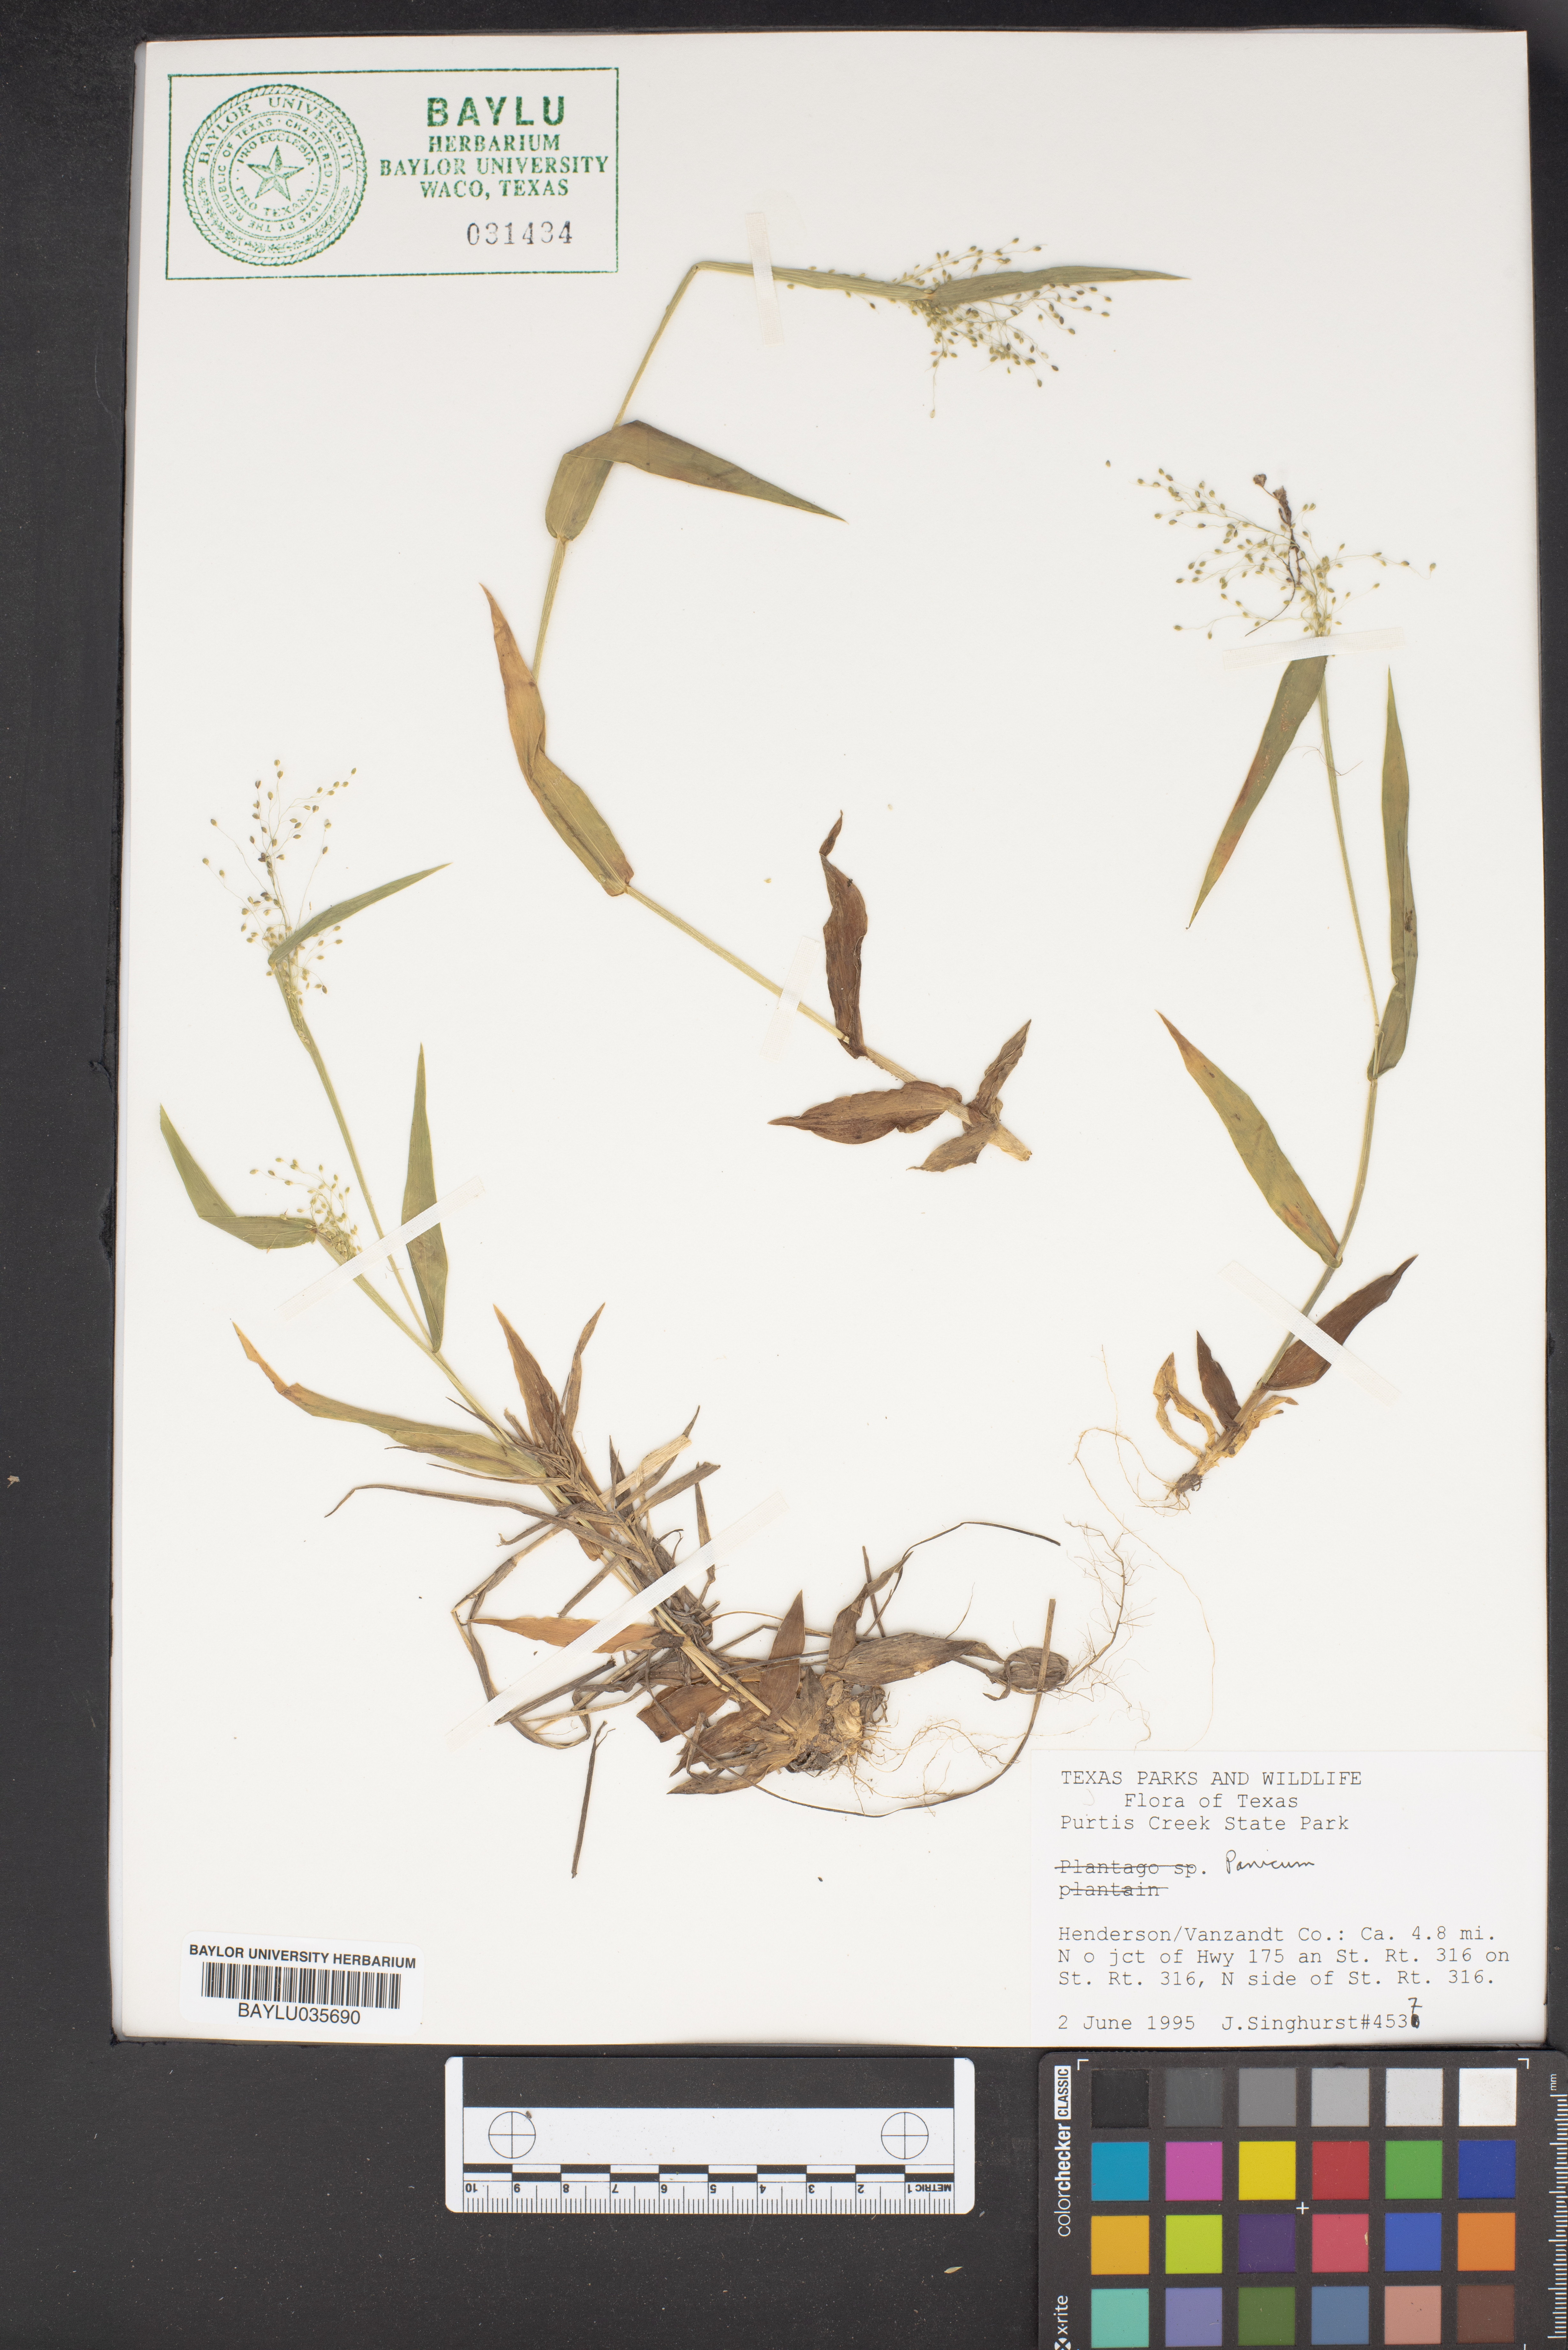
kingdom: Plantae
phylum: Tracheophyta
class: Liliopsida
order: Poales
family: Poaceae
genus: Panicum
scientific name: Panicum
